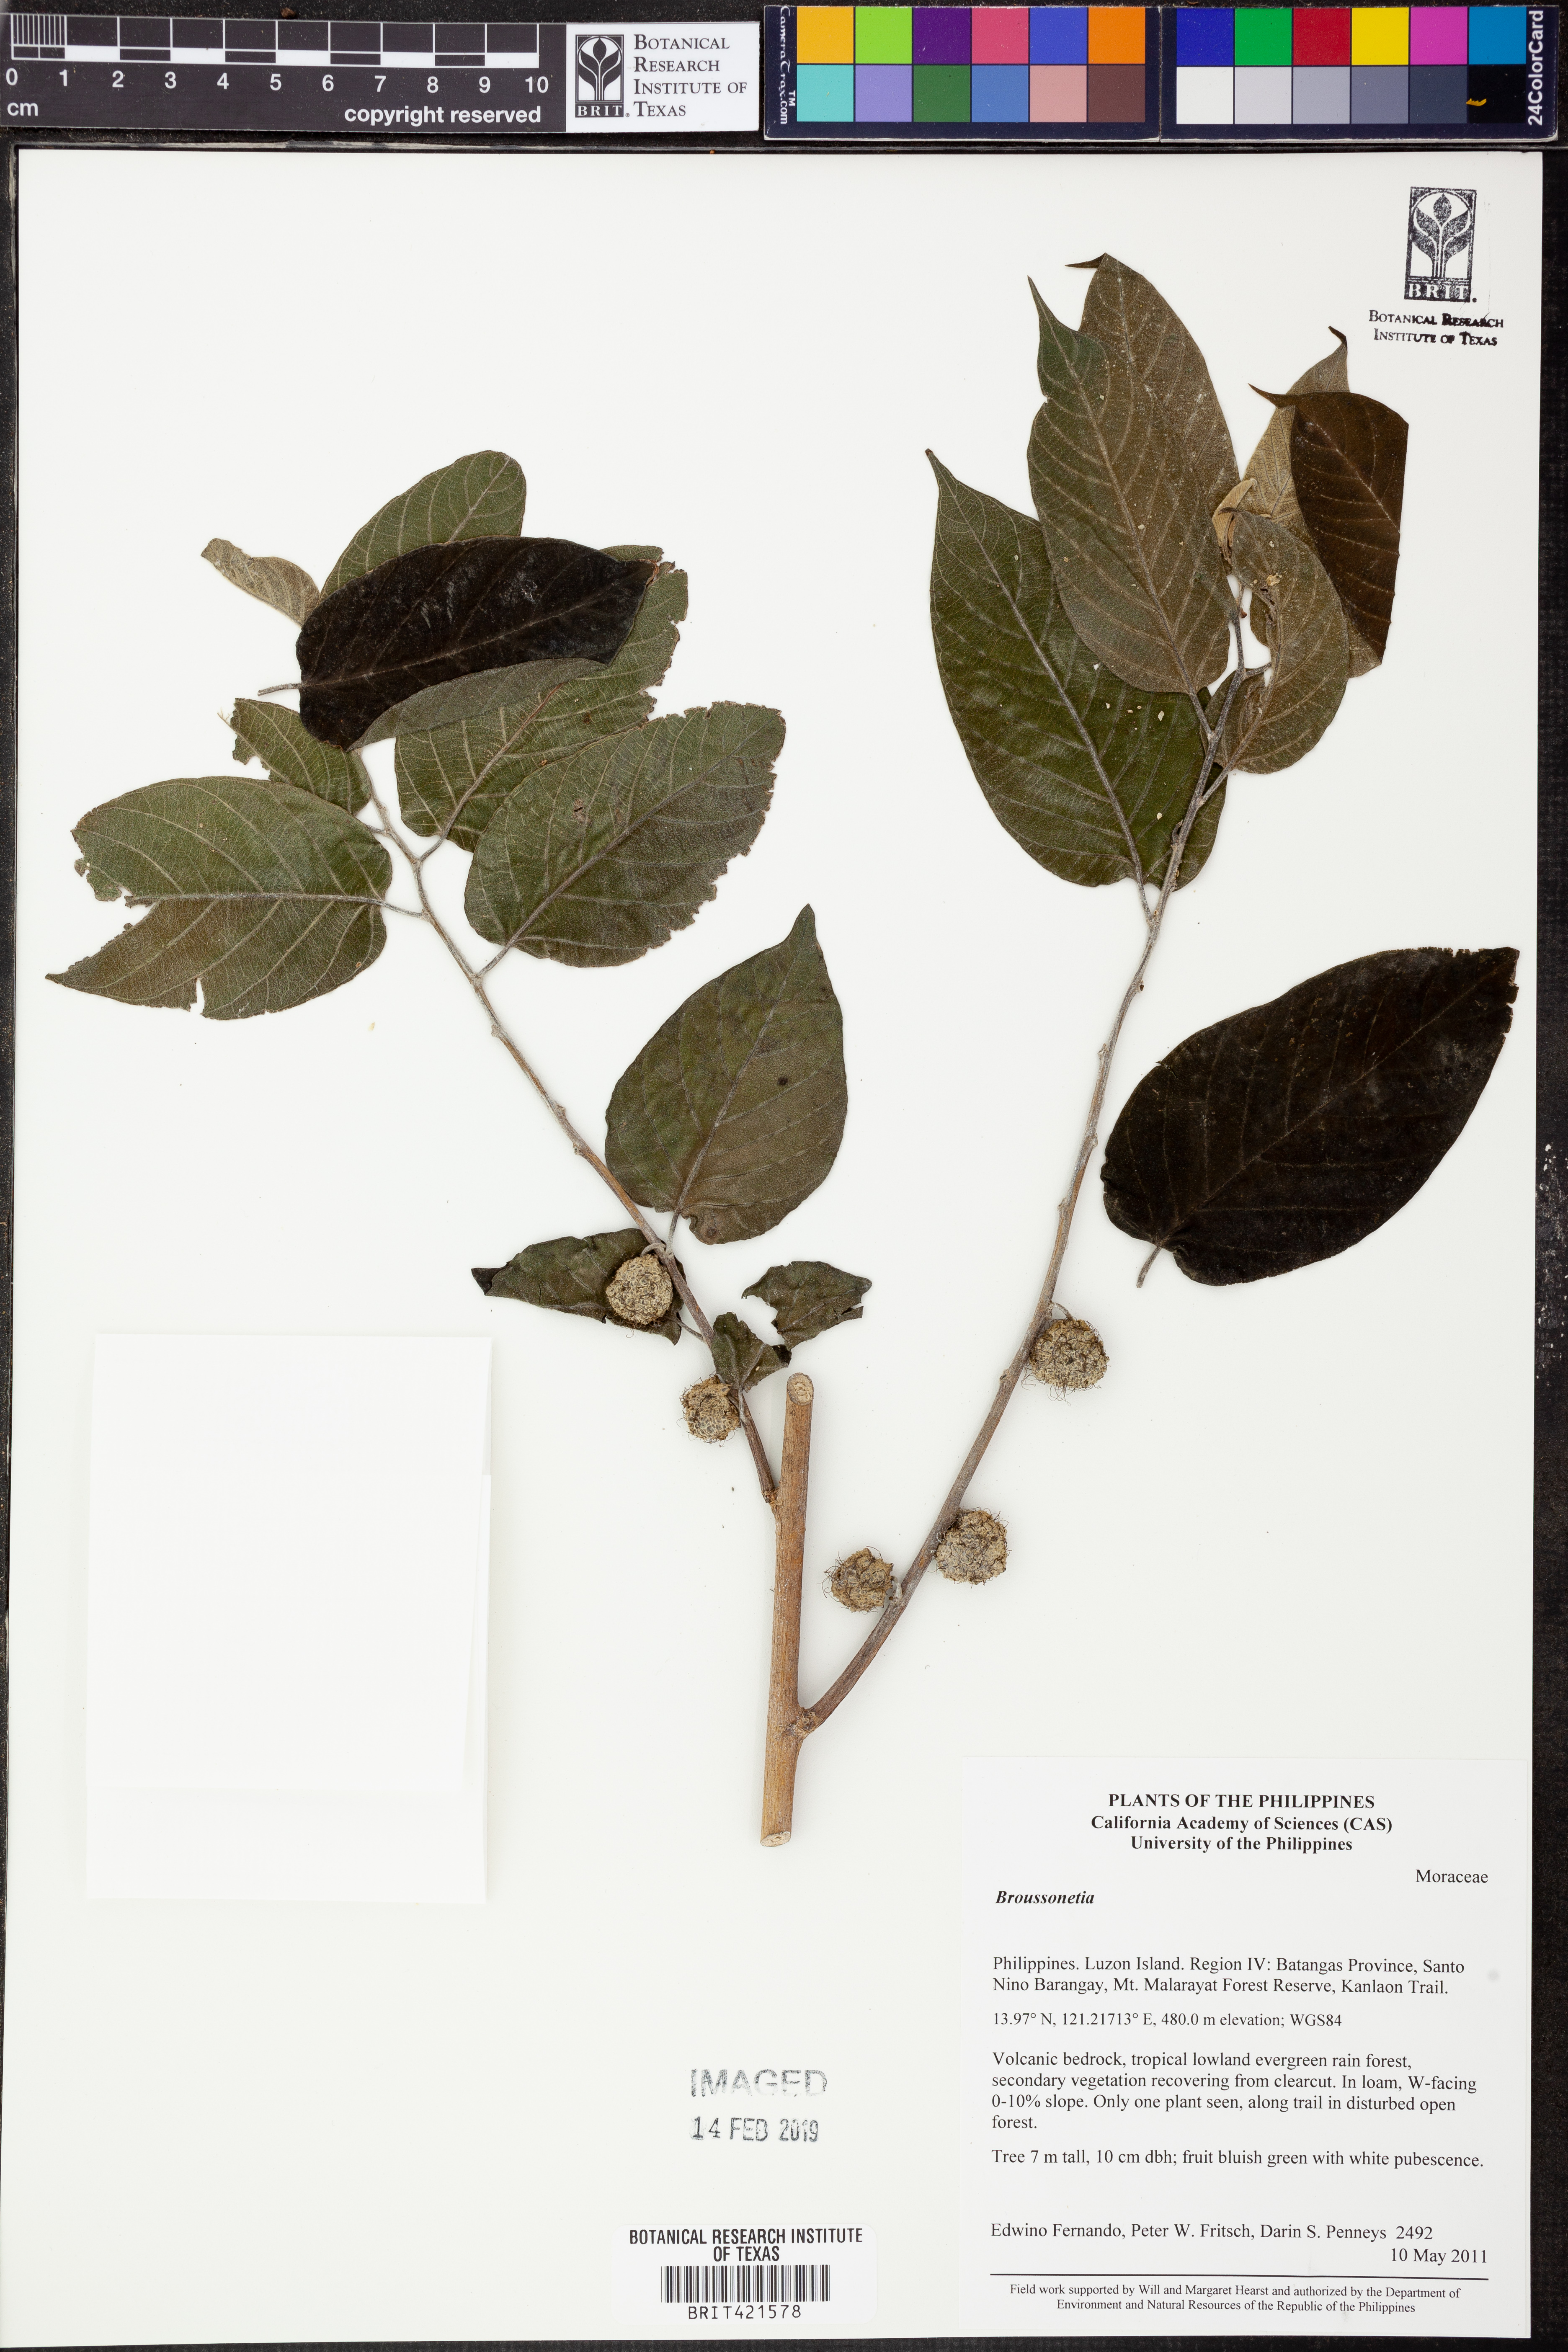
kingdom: Plantae
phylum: Tracheophyta
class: Magnoliopsida
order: Rosales
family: Moraceae
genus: Broussonetia
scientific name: Broussonetia
